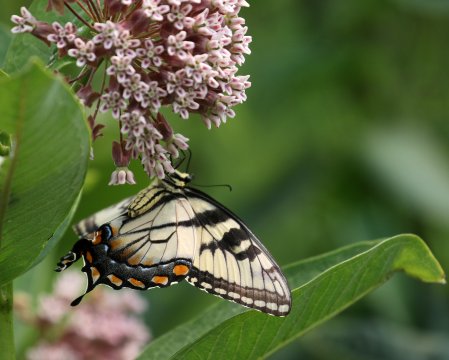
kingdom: Animalia
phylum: Arthropoda
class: Insecta
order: Lepidoptera
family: Papilionidae
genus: Pterourus
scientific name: Pterourus glaucus
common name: Eastern Tiger Swallowtail
